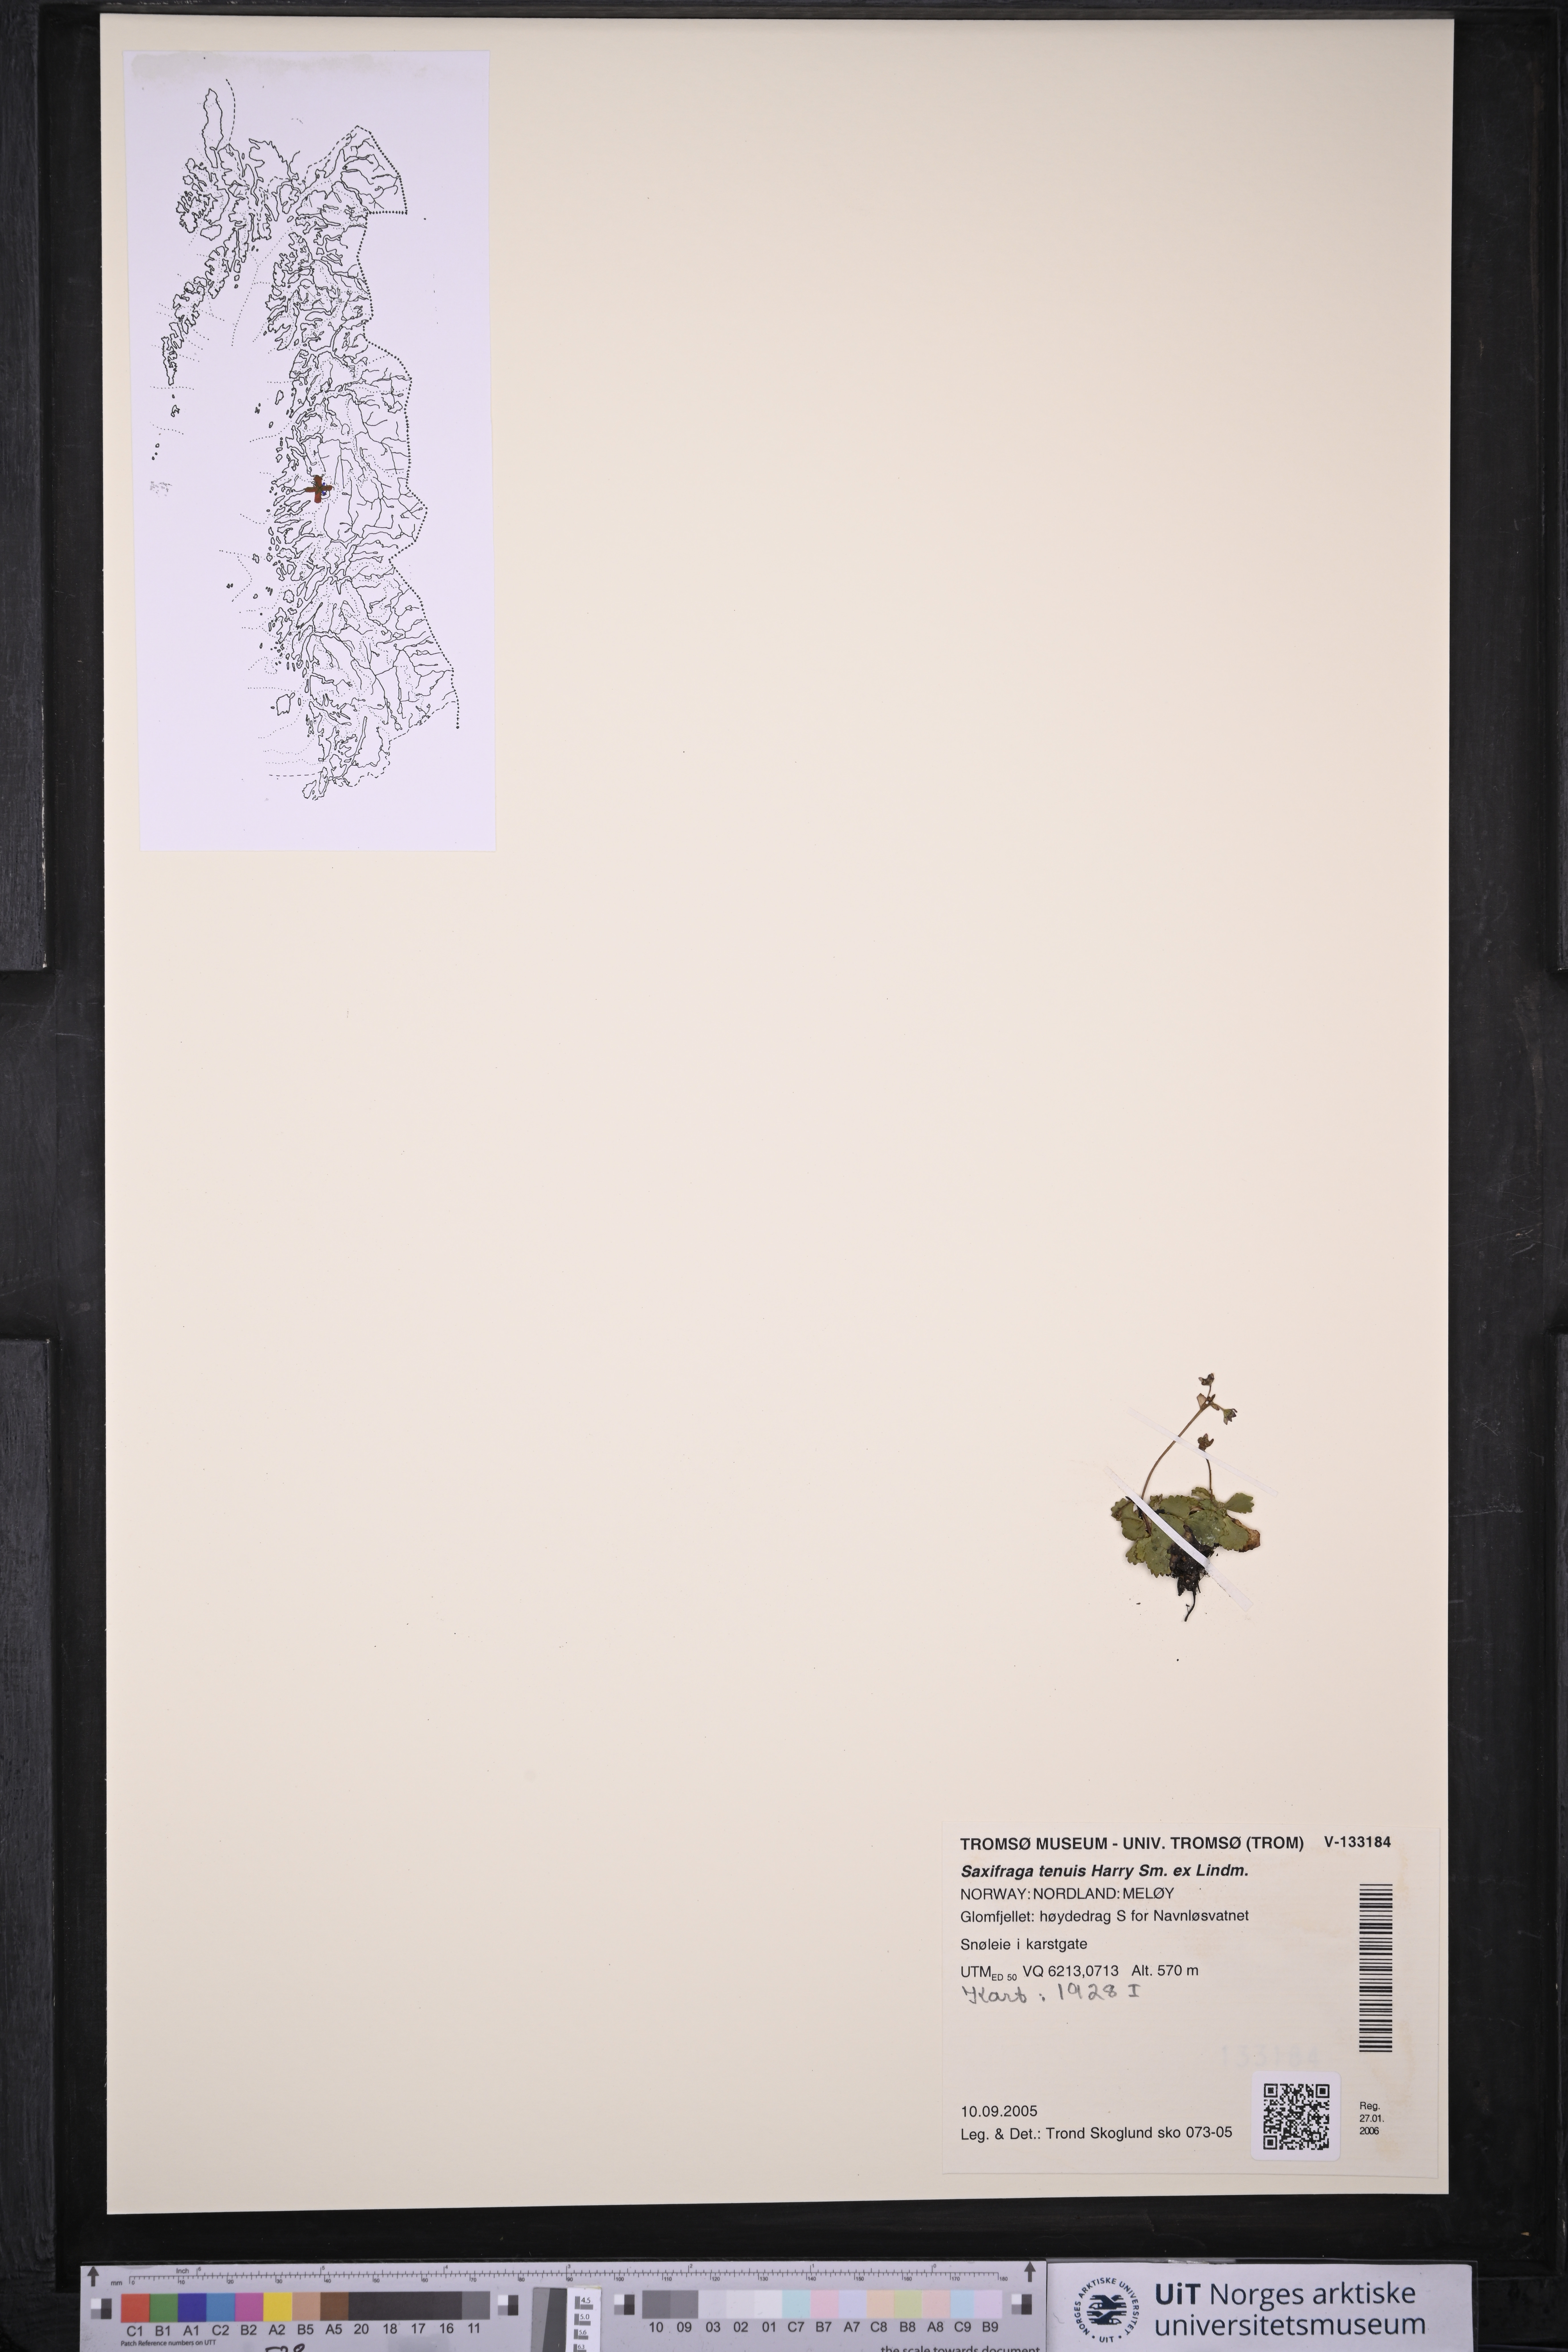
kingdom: Plantae
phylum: Tracheophyta
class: Magnoliopsida
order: Saxifragales
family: Saxifragaceae
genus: Micranthes
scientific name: Micranthes tenuis
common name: Ottertail pass saxifrage
